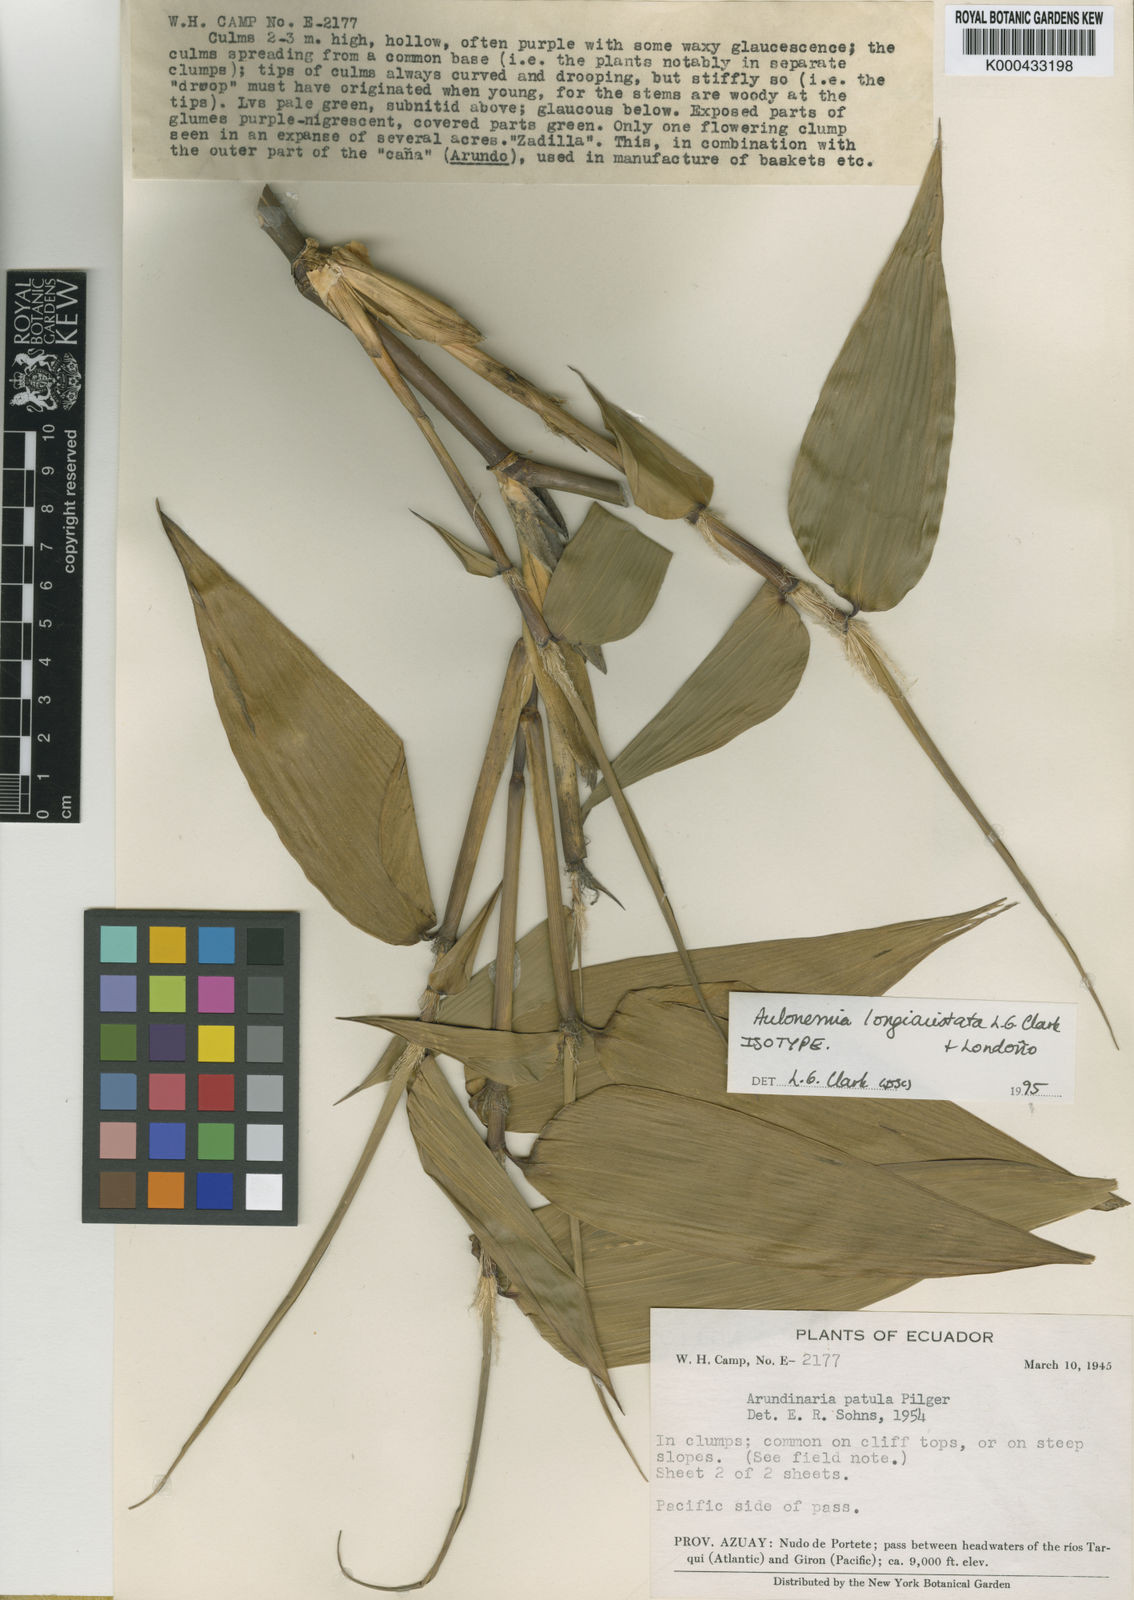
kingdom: Plantae
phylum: Tracheophyta
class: Liliopsida
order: Poales
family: Poaceae
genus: Aulonemia
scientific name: Aulonemia
